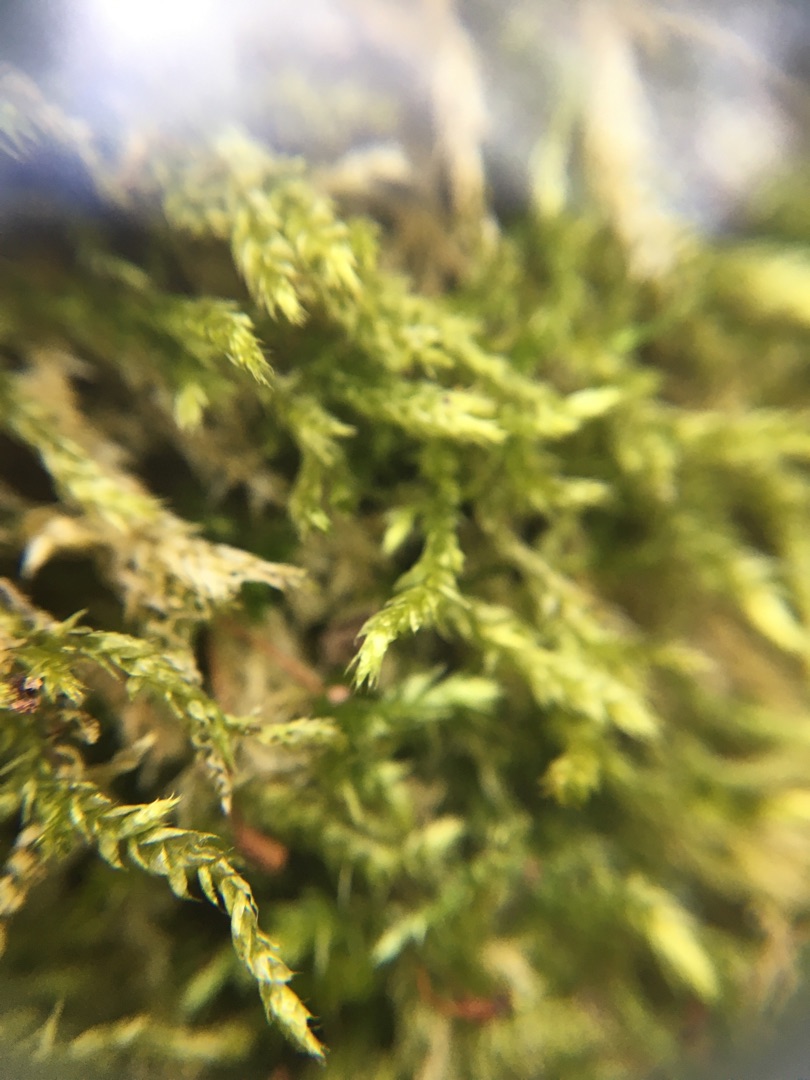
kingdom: Plantae
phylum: Bryophyta
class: Bryopsida
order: Hypnales
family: Brachytheciaceae
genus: Brachythecium
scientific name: Brachythecium rutabulum
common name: Almindelig kortkapsel
